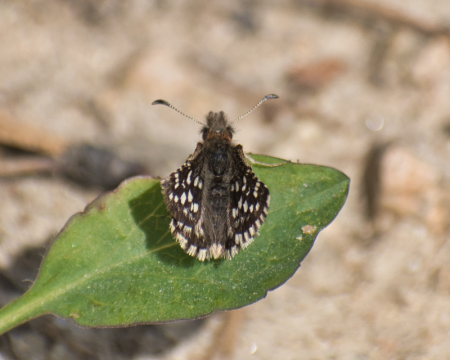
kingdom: Animalia
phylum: Arthropoda
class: Insecta
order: Lepidoptera
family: Hesperiidae
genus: Pyrgus
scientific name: Pyrgus ruralis
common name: Two-banded Checkered-Skipper
